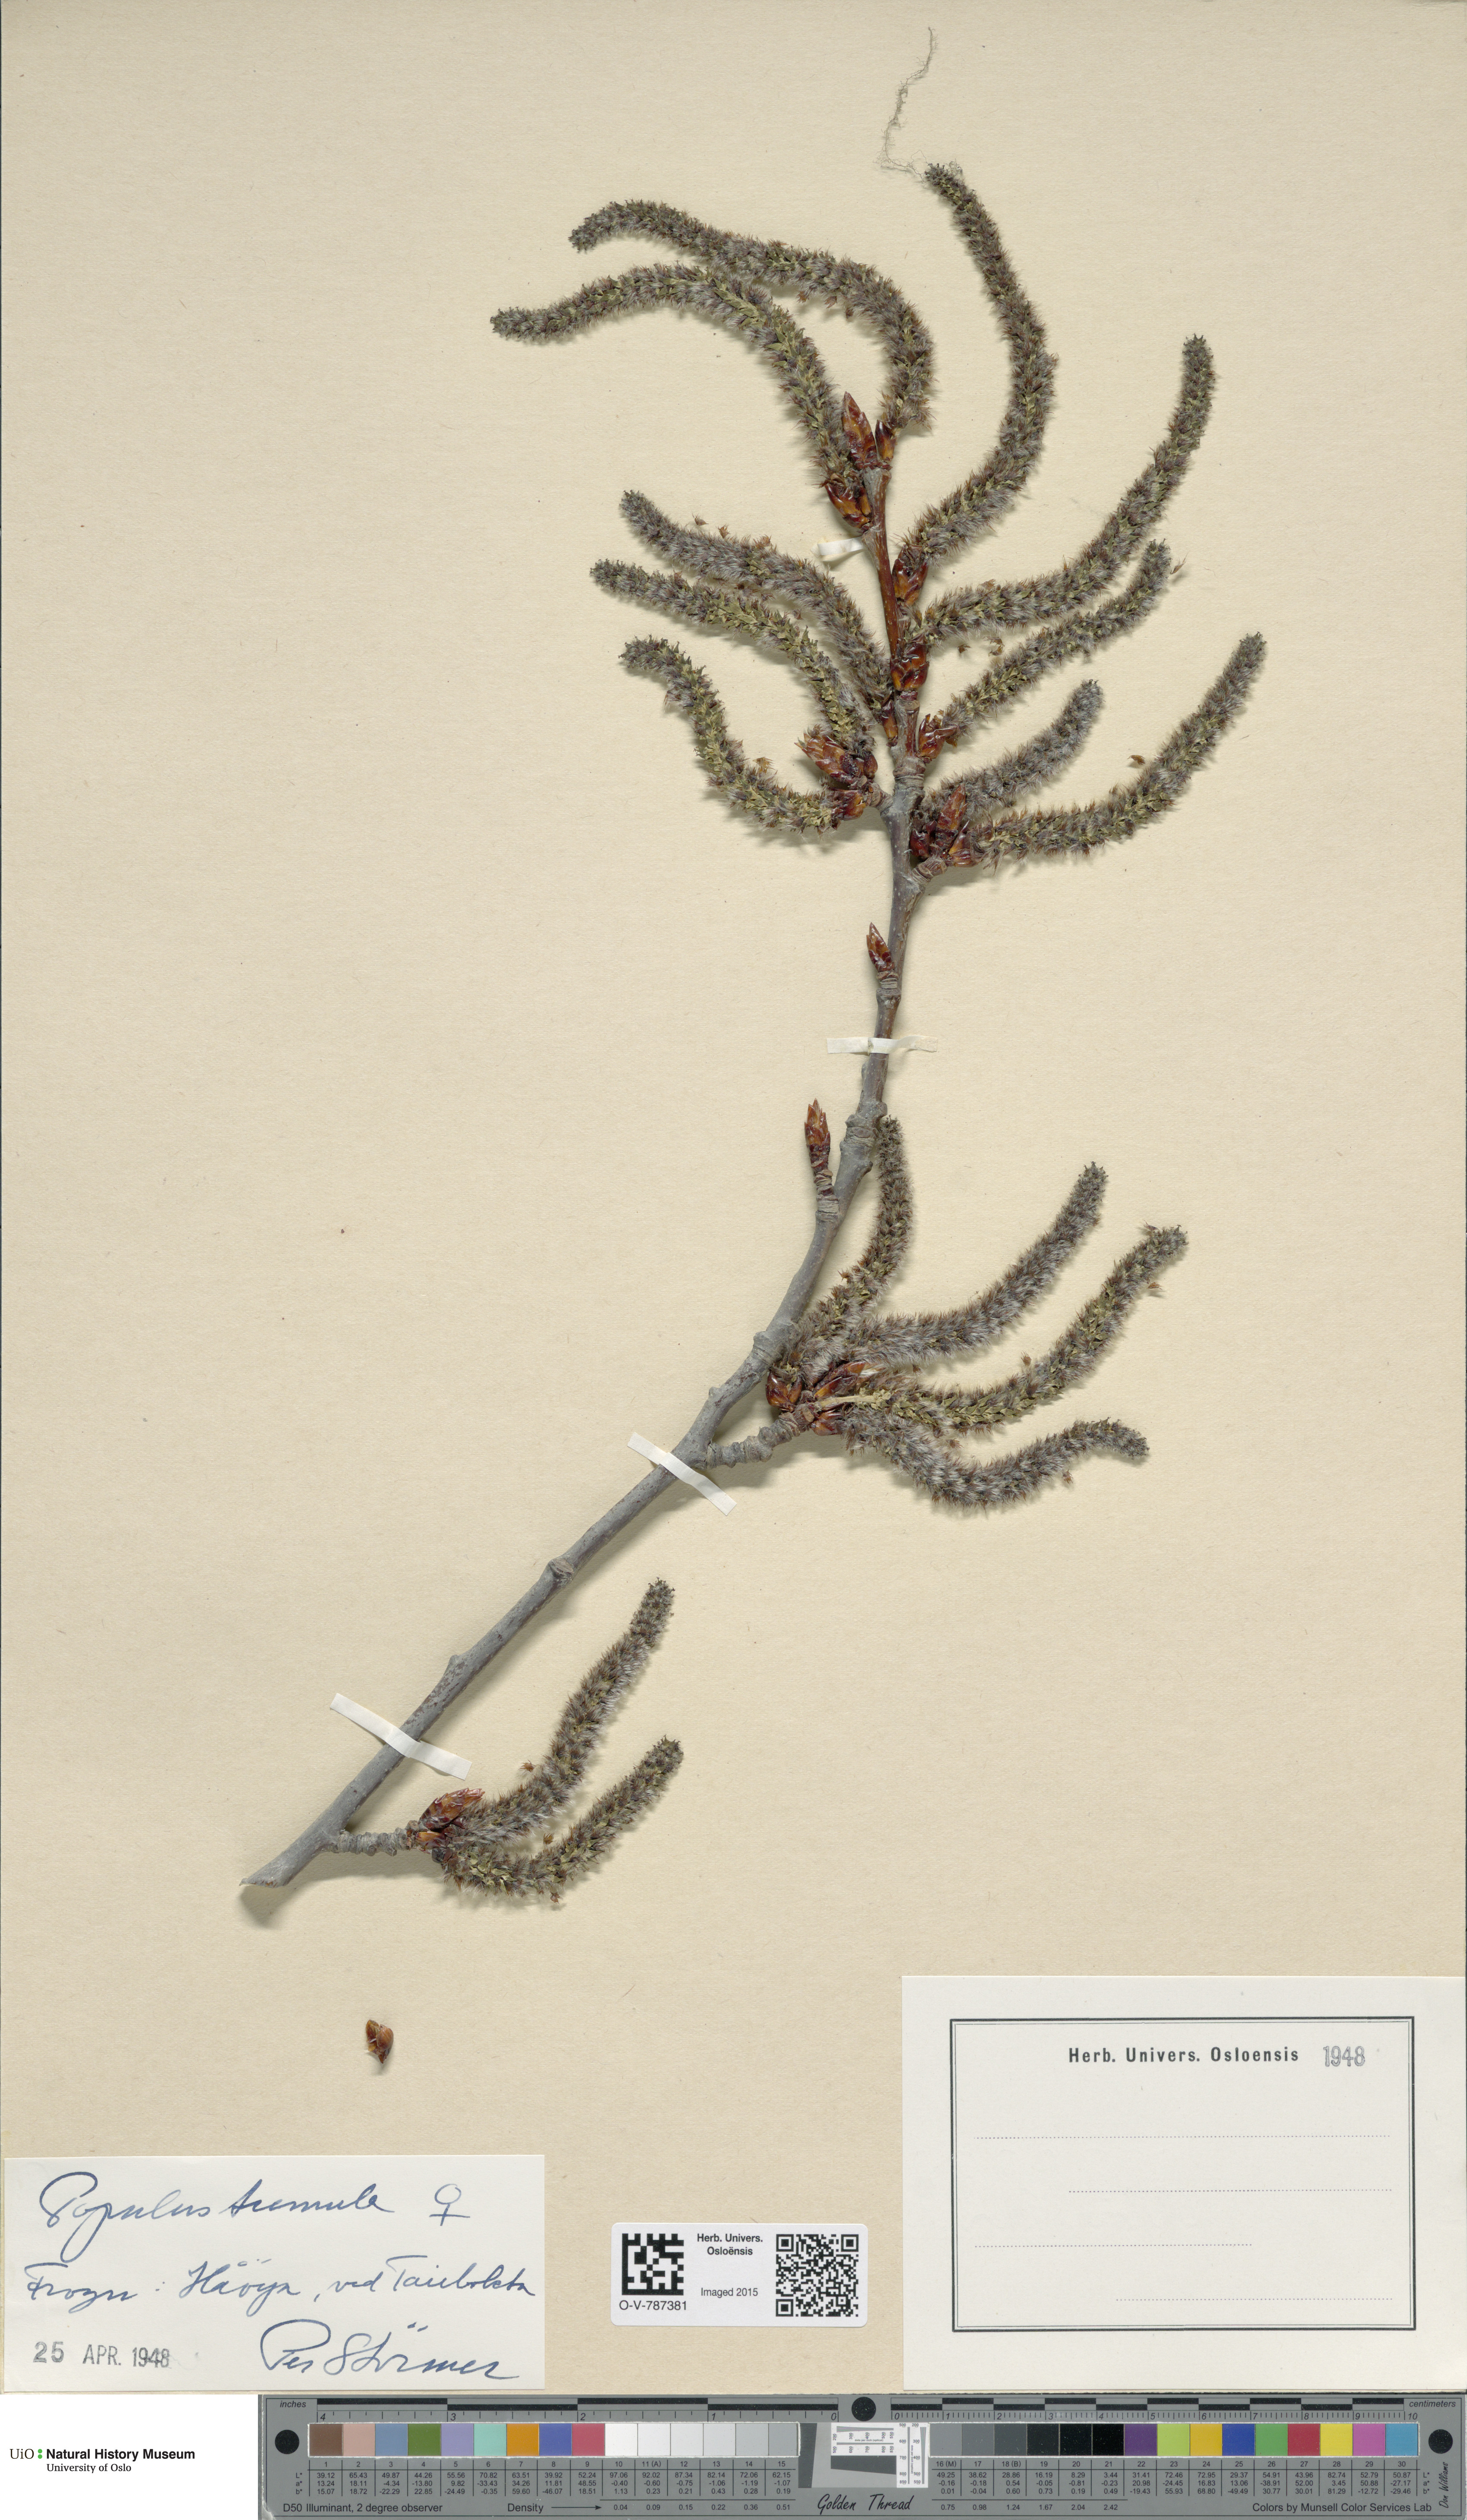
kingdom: Plantae
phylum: Tracheophyta
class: Magnoliopsida
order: Malpighiales
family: Salicaceae
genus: Populus
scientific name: Populus tremula
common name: European aspen
